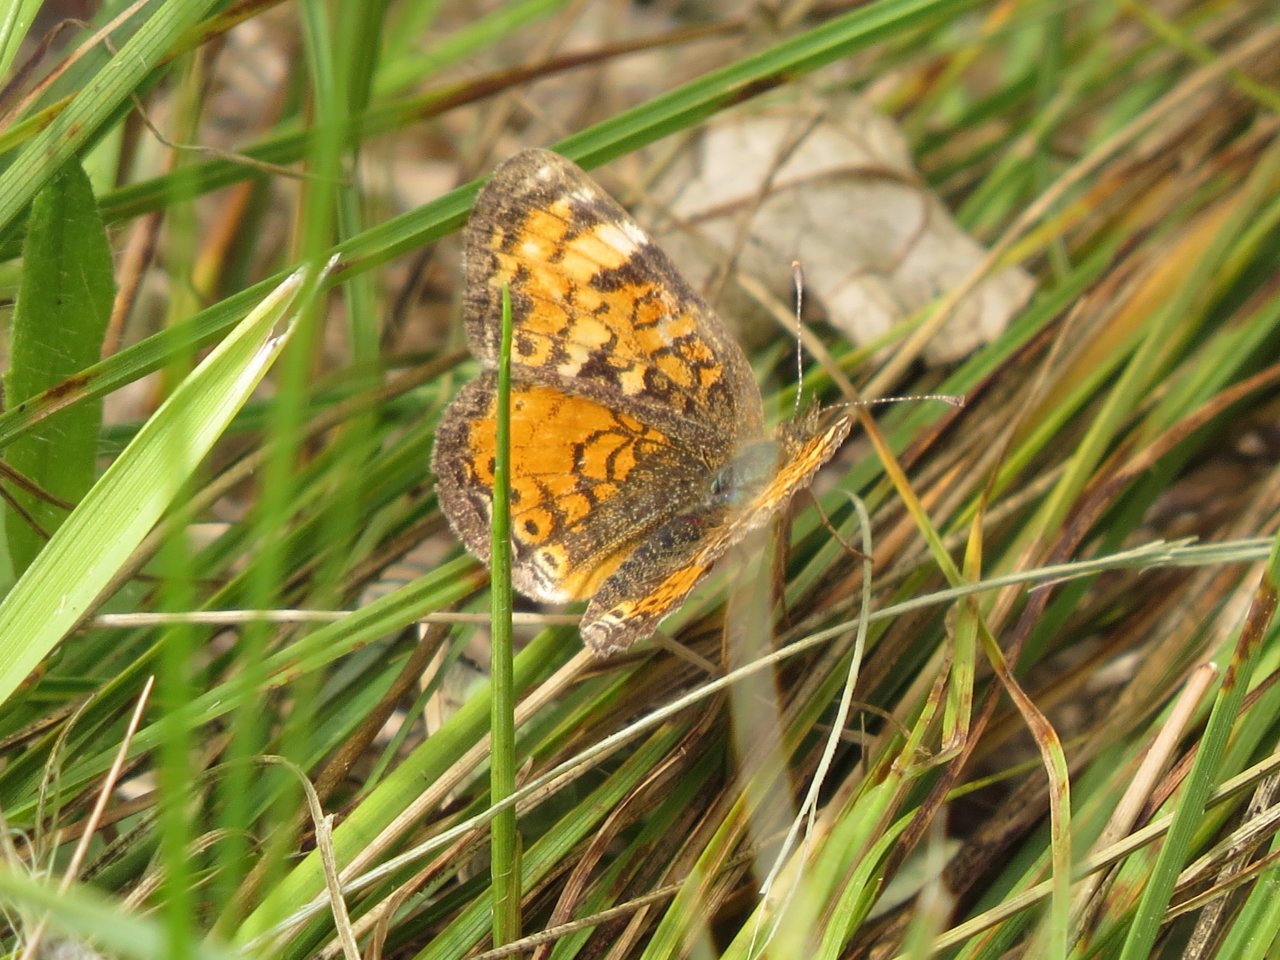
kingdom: Animalia
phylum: Arthropoda
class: Insecta
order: Lepidoptera
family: Nymphalidae
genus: Phyciodes
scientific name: Phyciodes tharos
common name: Northern Crescent
